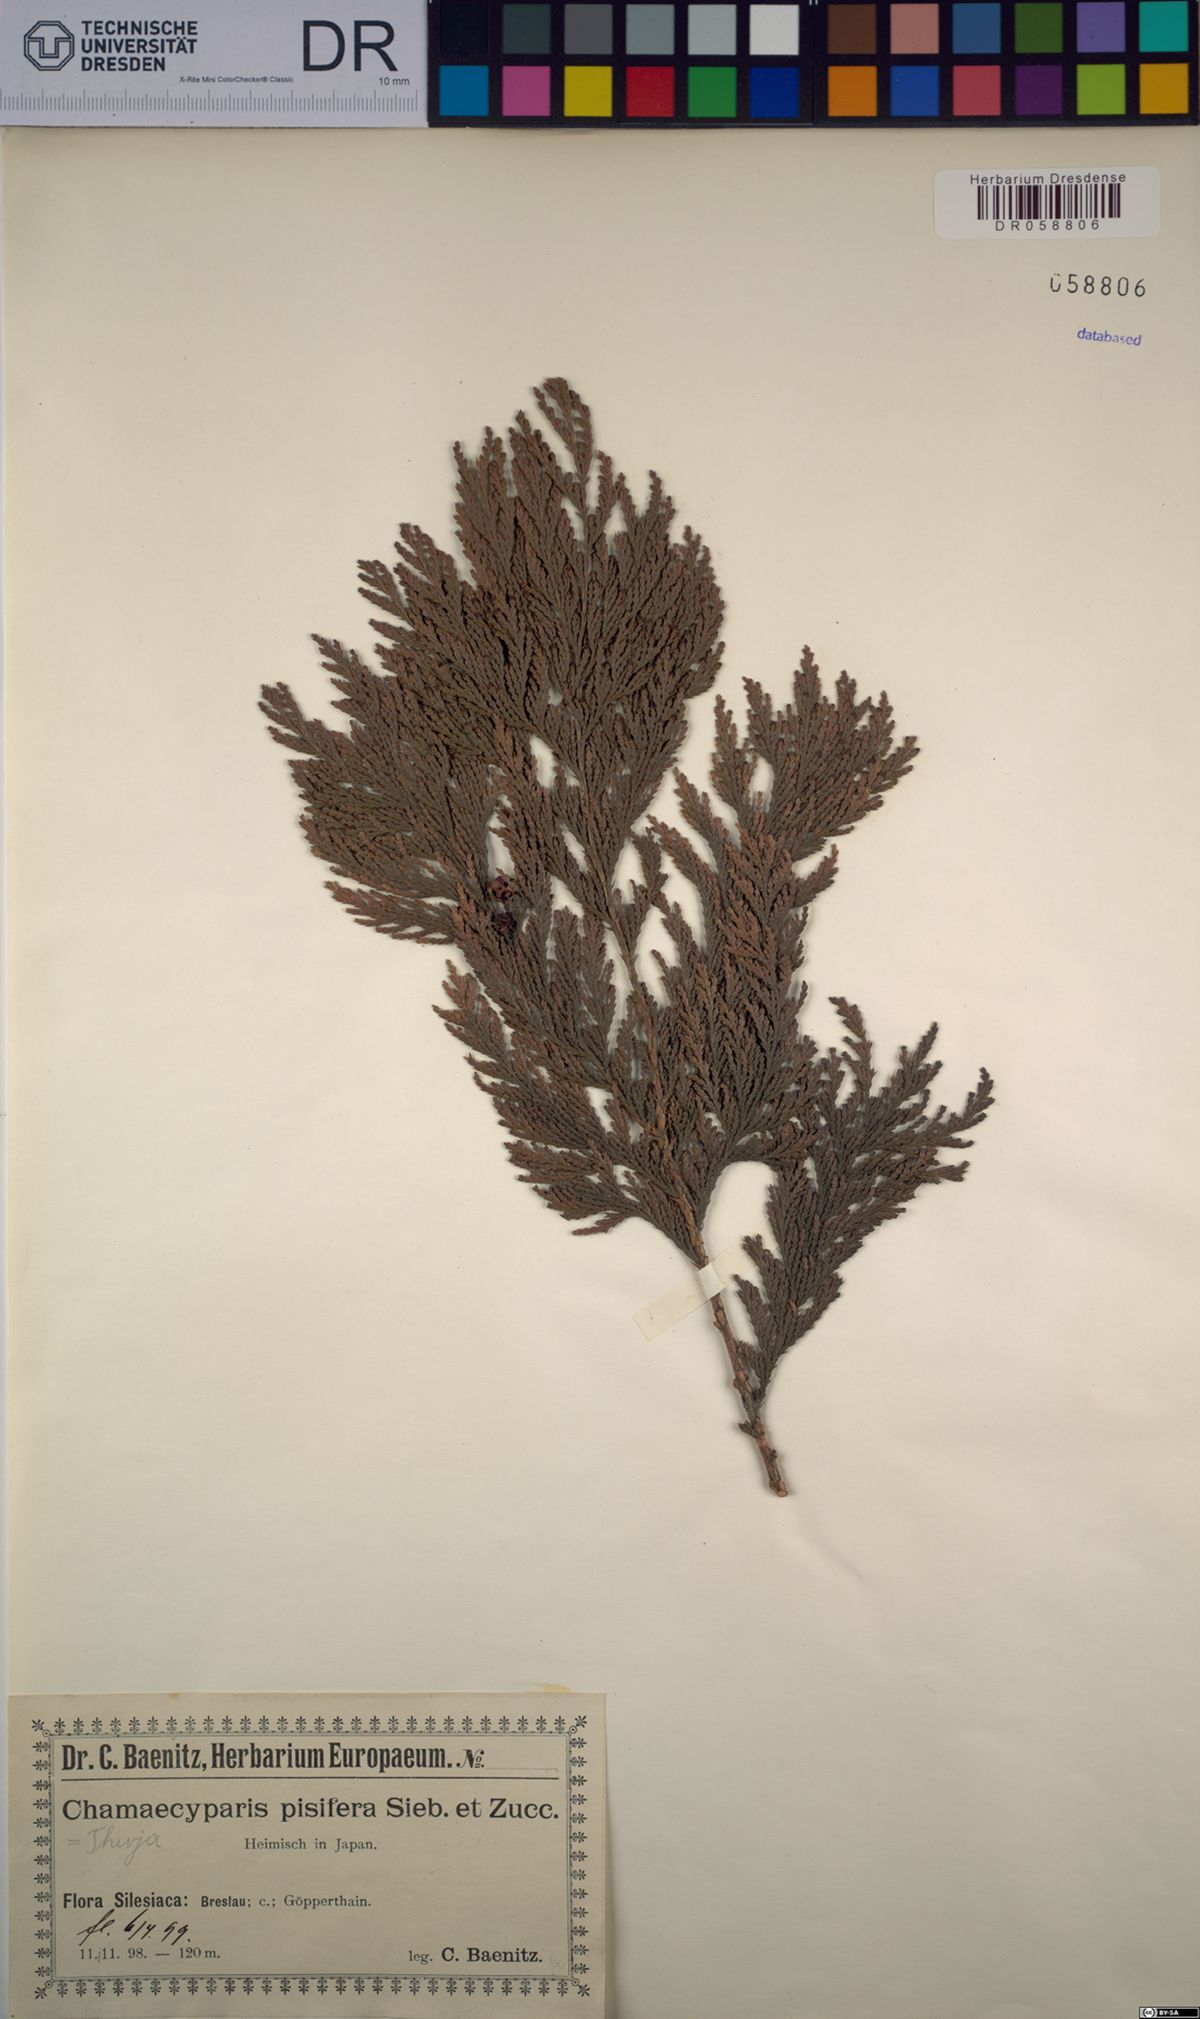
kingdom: Plantae
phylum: Tracheophyta
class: Pinopsida
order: Pinales
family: Cupressaceae
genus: Chamaecyparis
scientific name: Chamaecyparis pisifera
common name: Sawara cypress
